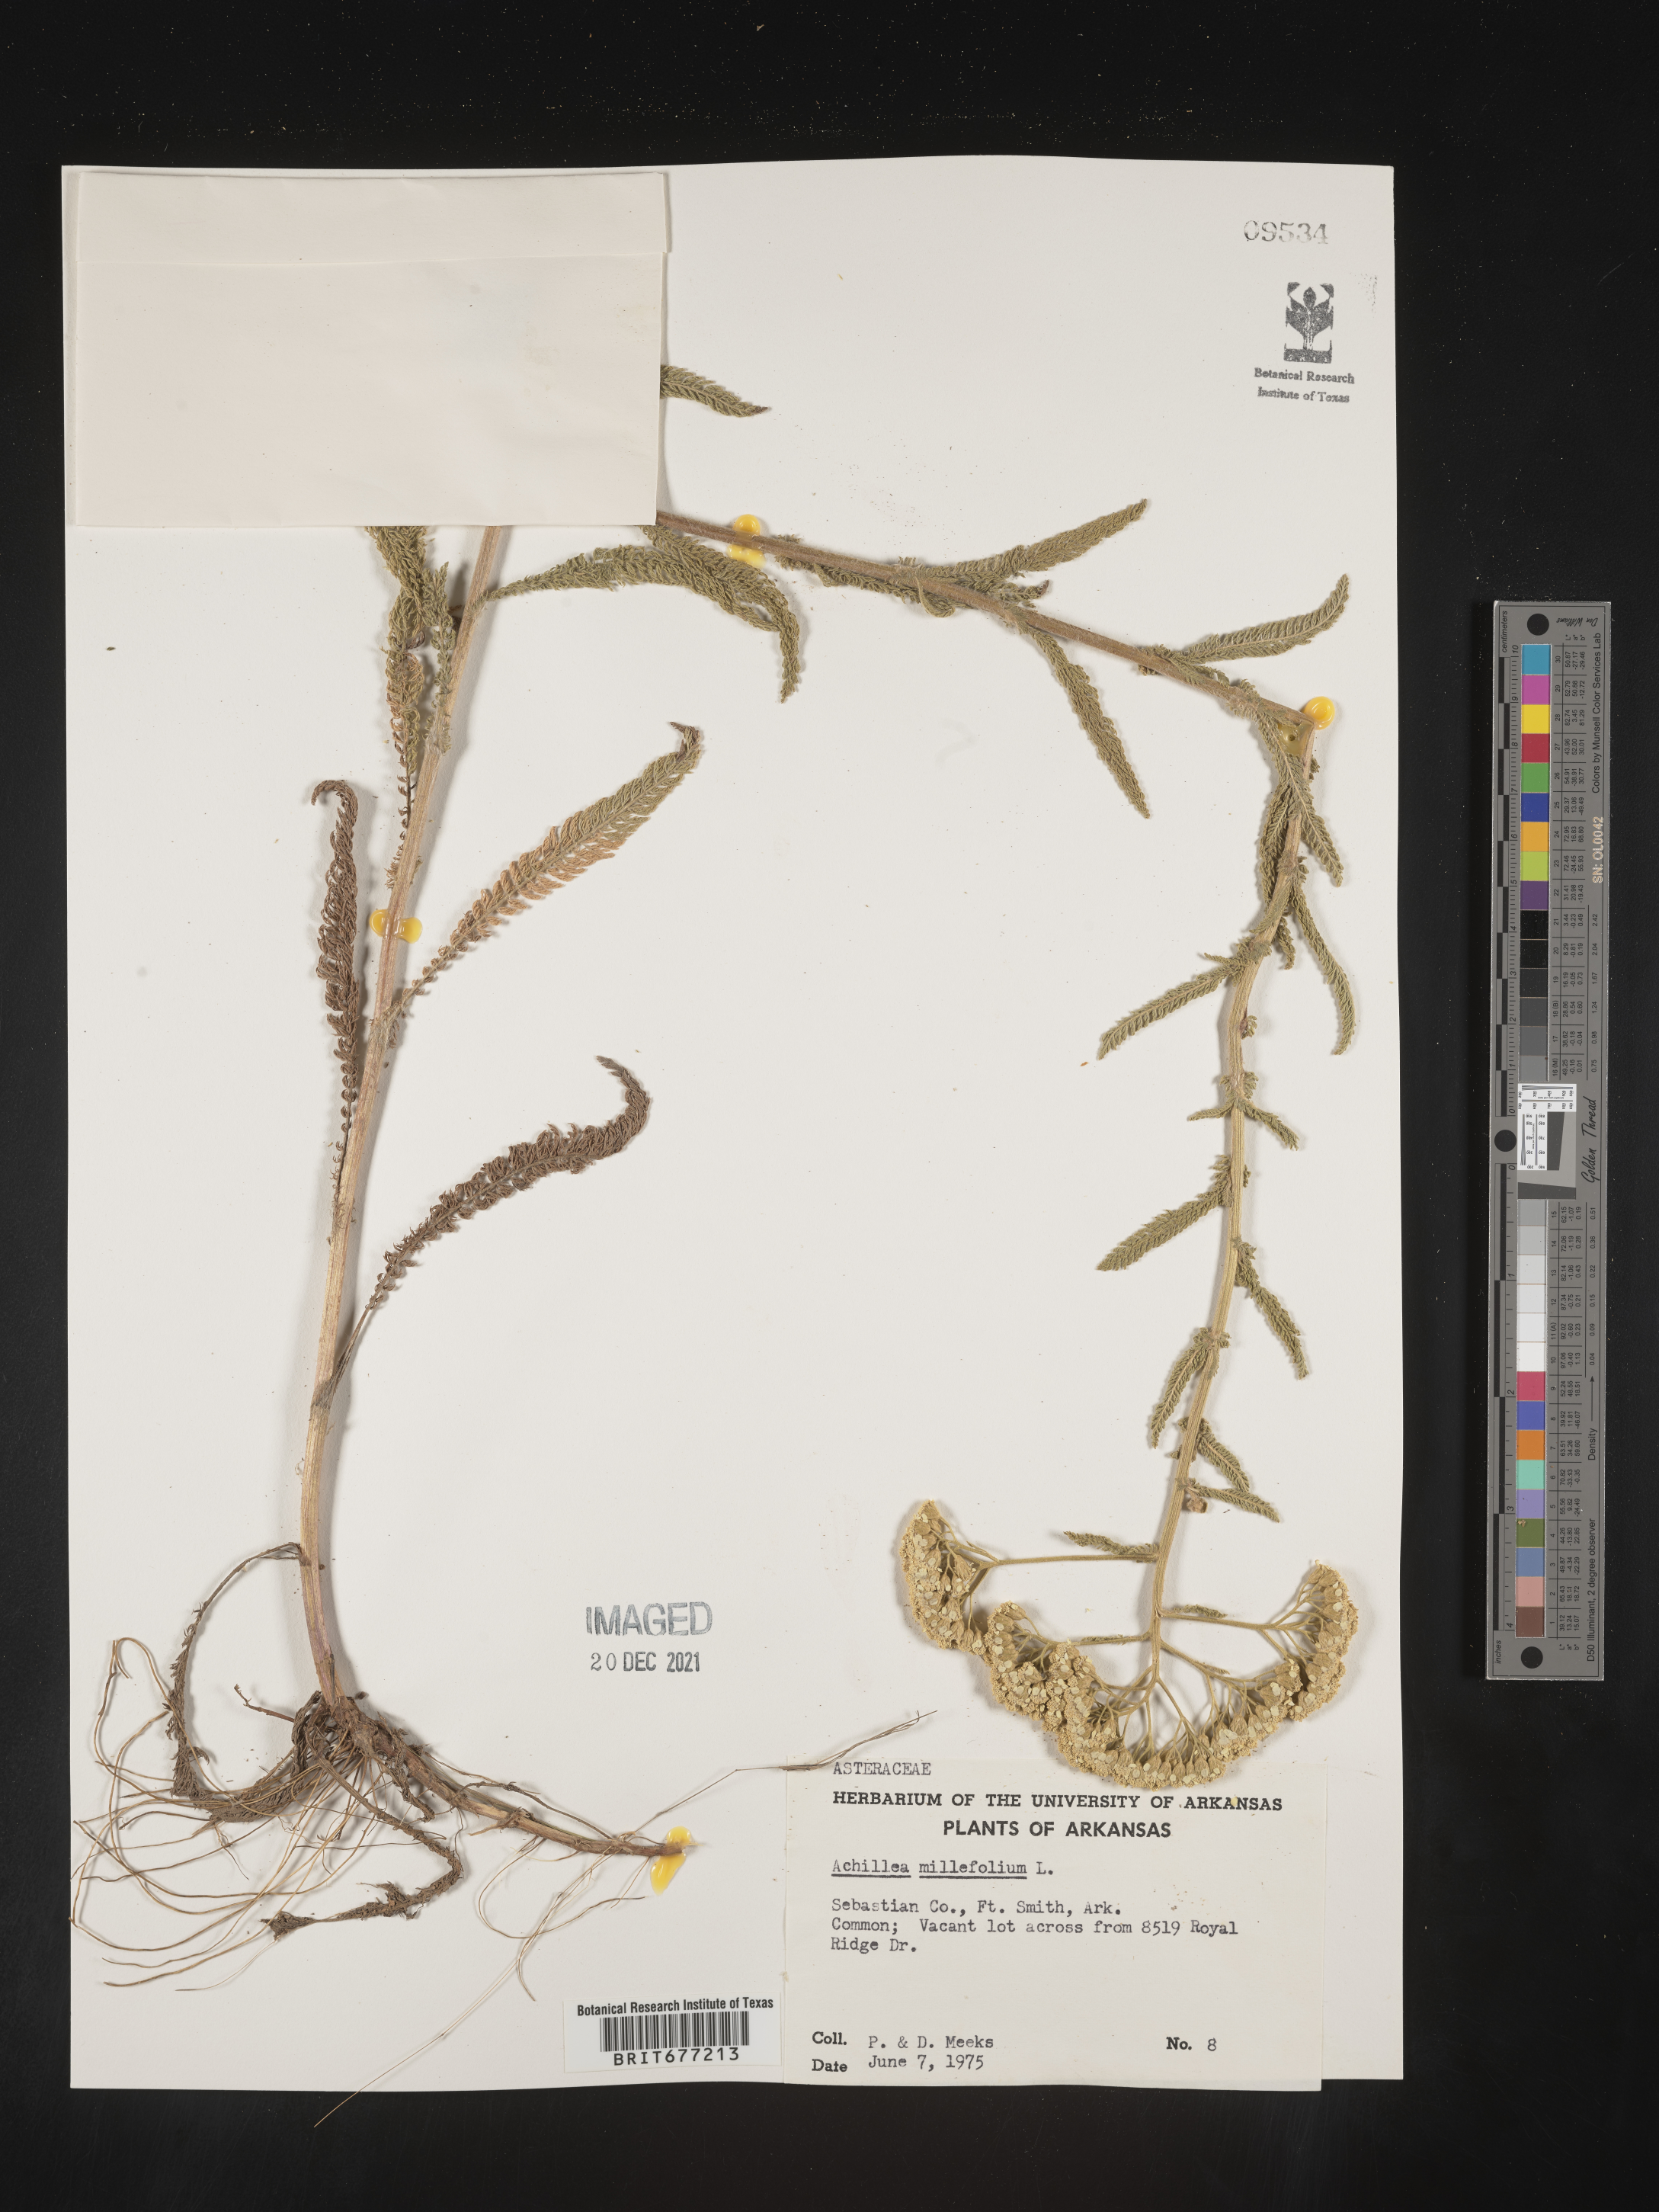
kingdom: Plantae
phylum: Tracheophyta
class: Magnoliopsida
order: Asterales
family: Asteraceae
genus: Achillea
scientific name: Achillea millefolium
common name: Yarrow
